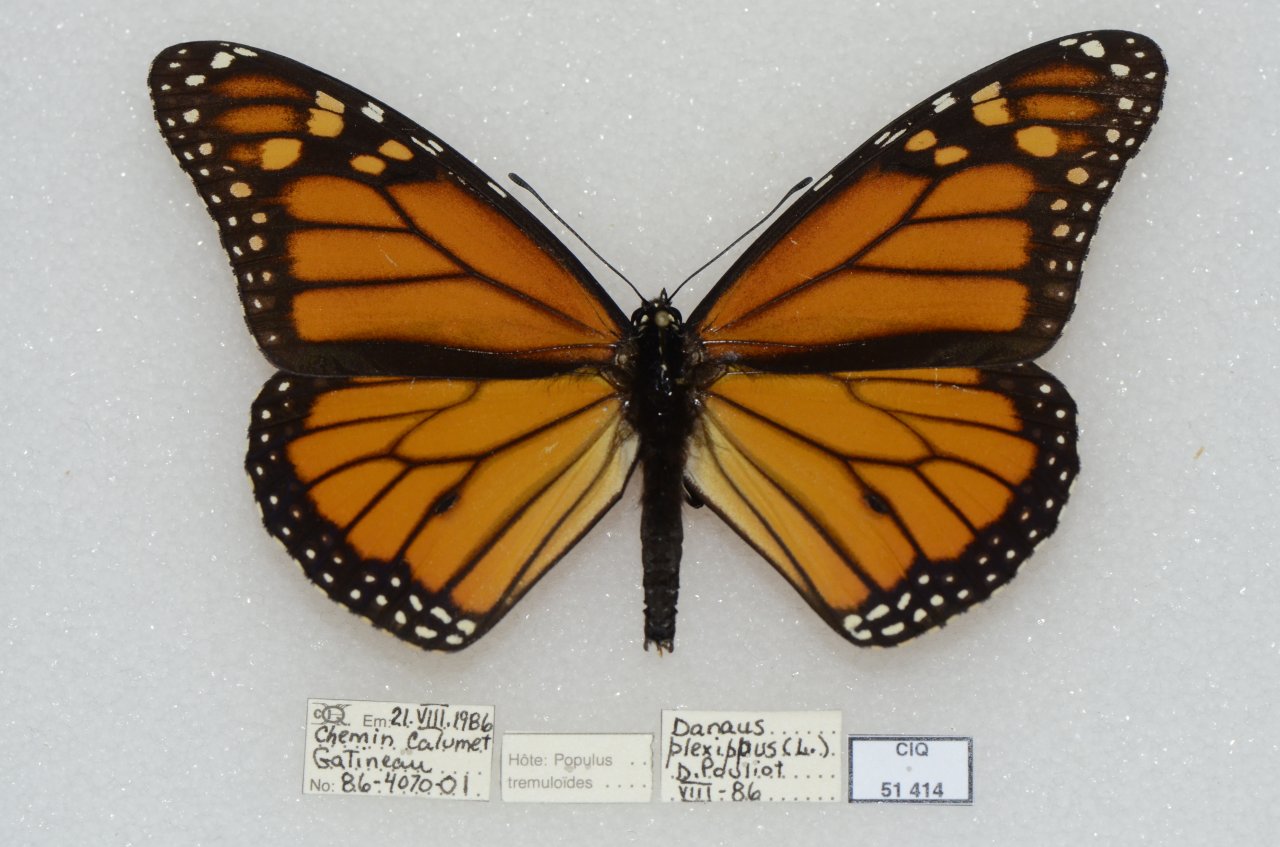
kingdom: Animalia
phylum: Arthropoda
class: Insecta
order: Lepidoptera
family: Nymphalidae
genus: Danaus
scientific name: Danaus plexippus
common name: Monarch
